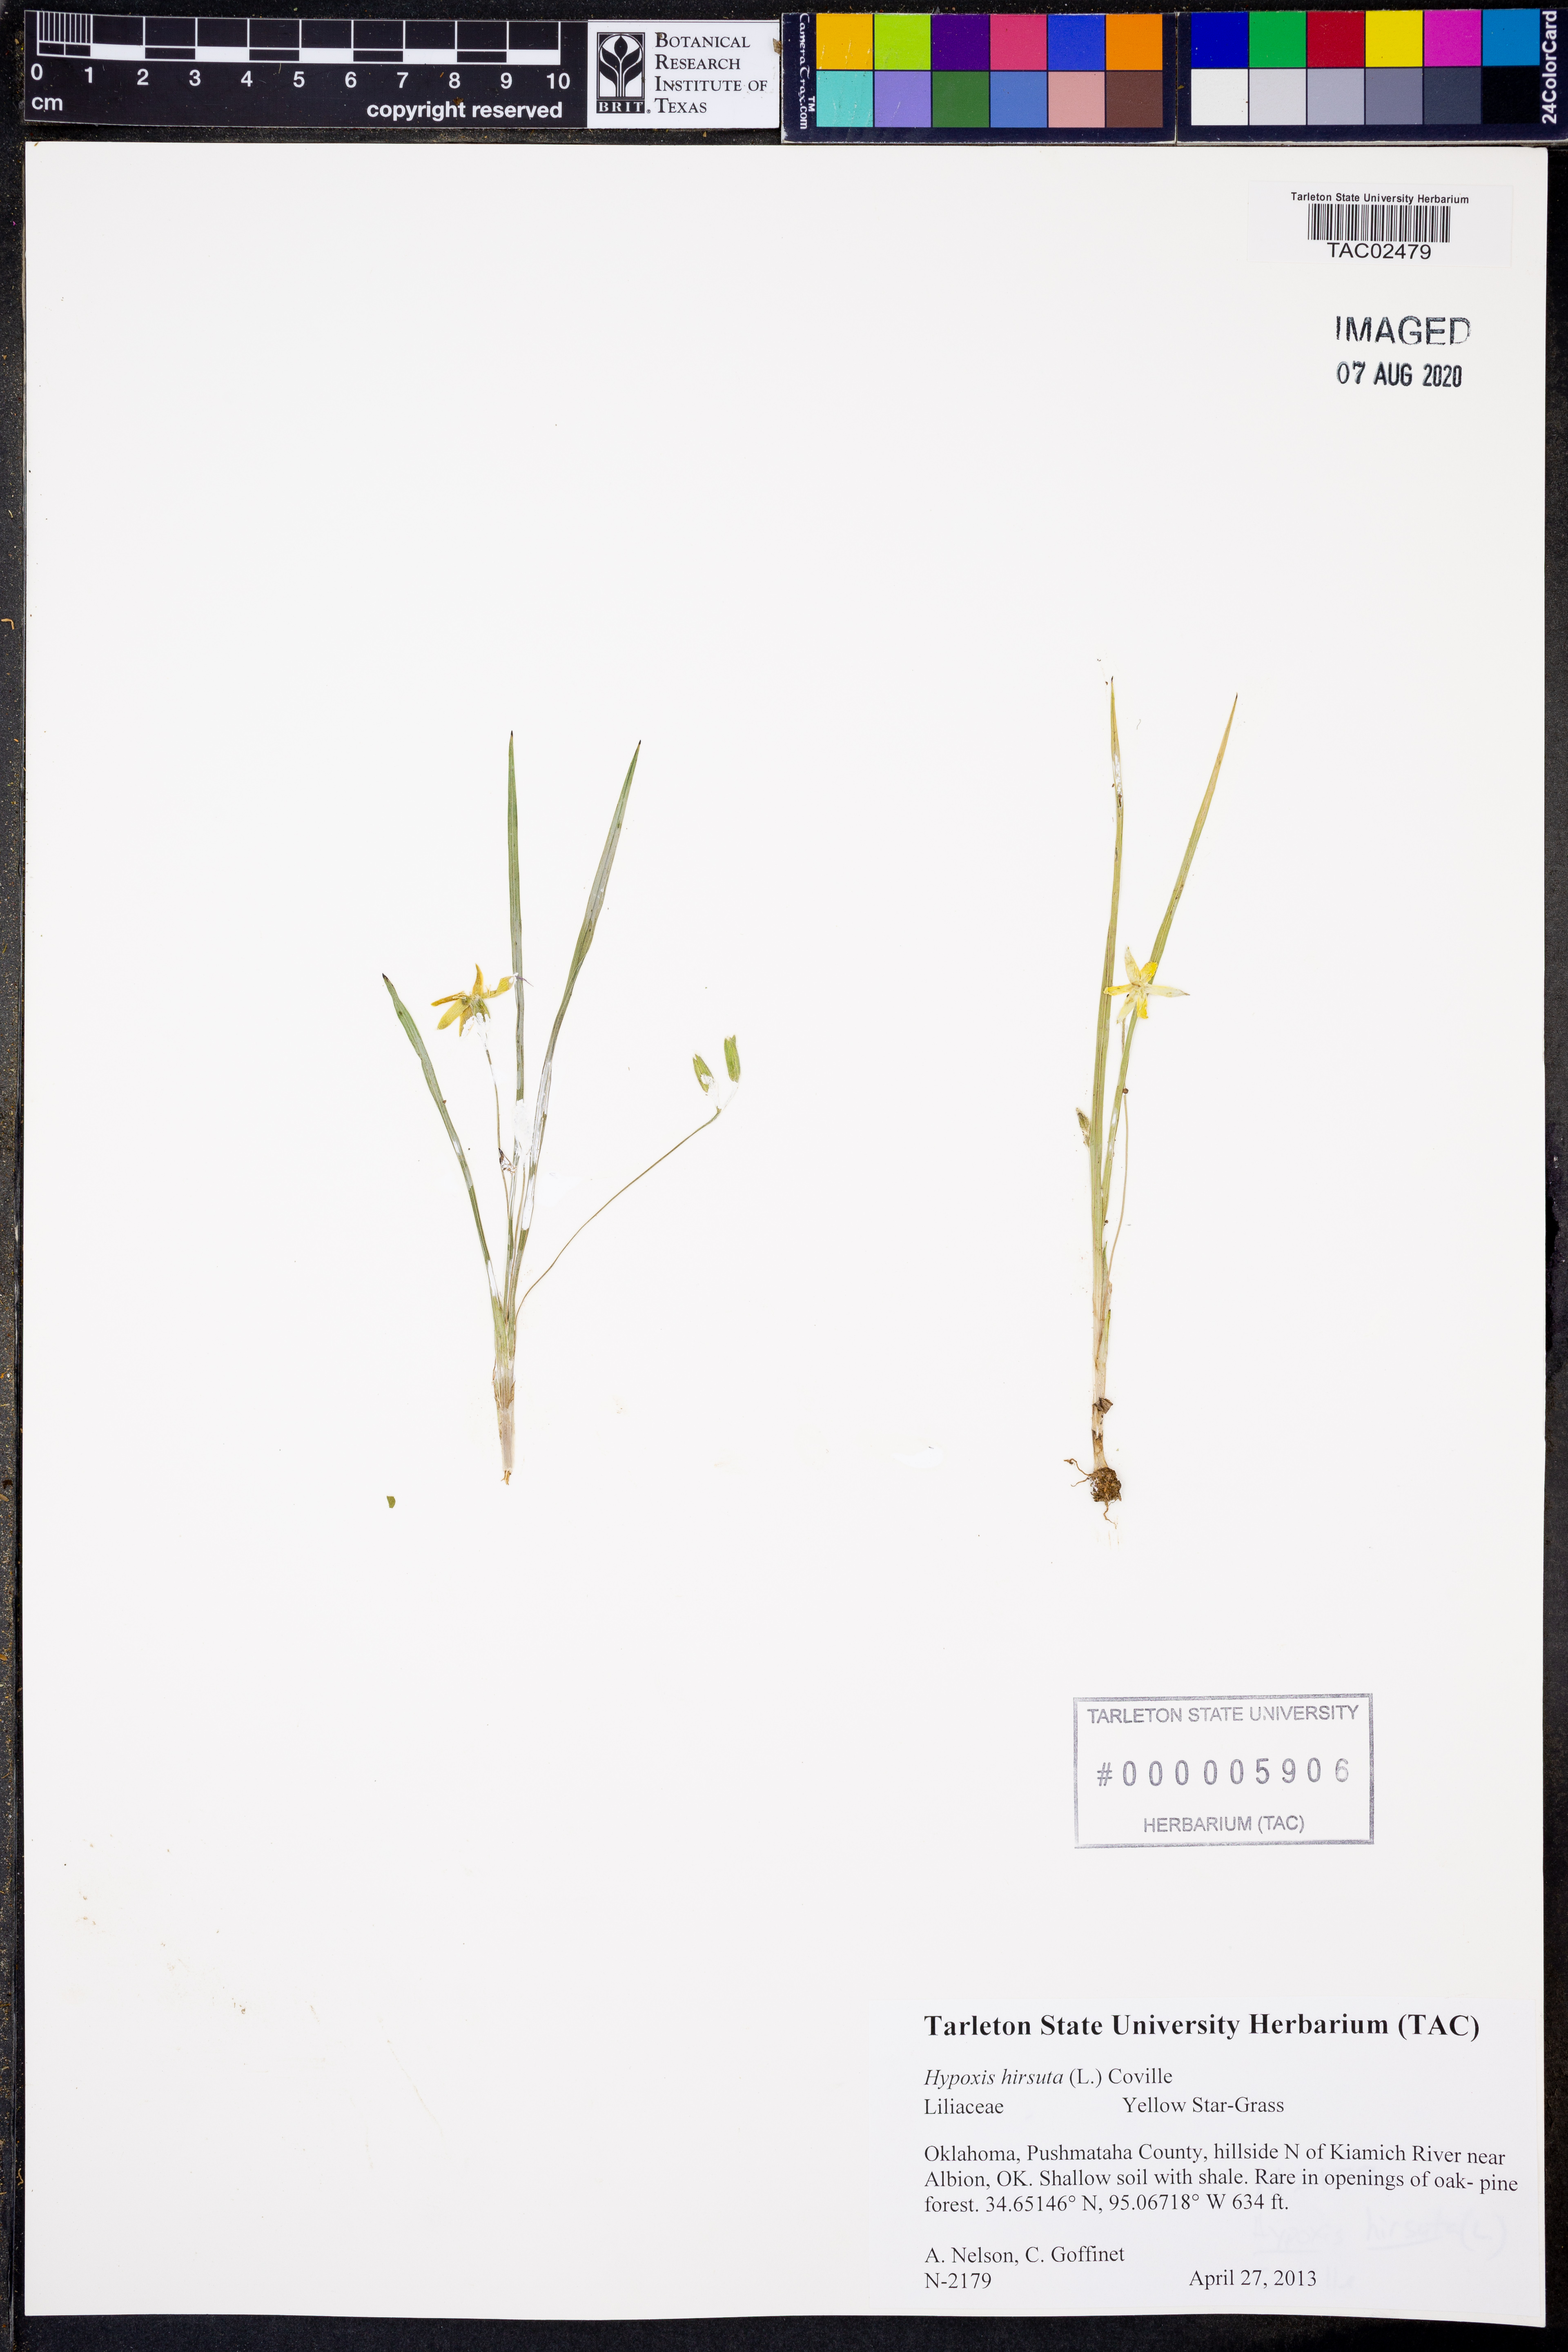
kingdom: Plantae
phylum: Tracheophyta
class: Liliopsida
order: Asparagales
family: Hypoxidaceae
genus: Hypoxis
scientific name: Hypoxis hirsuta
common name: Common goldstar
